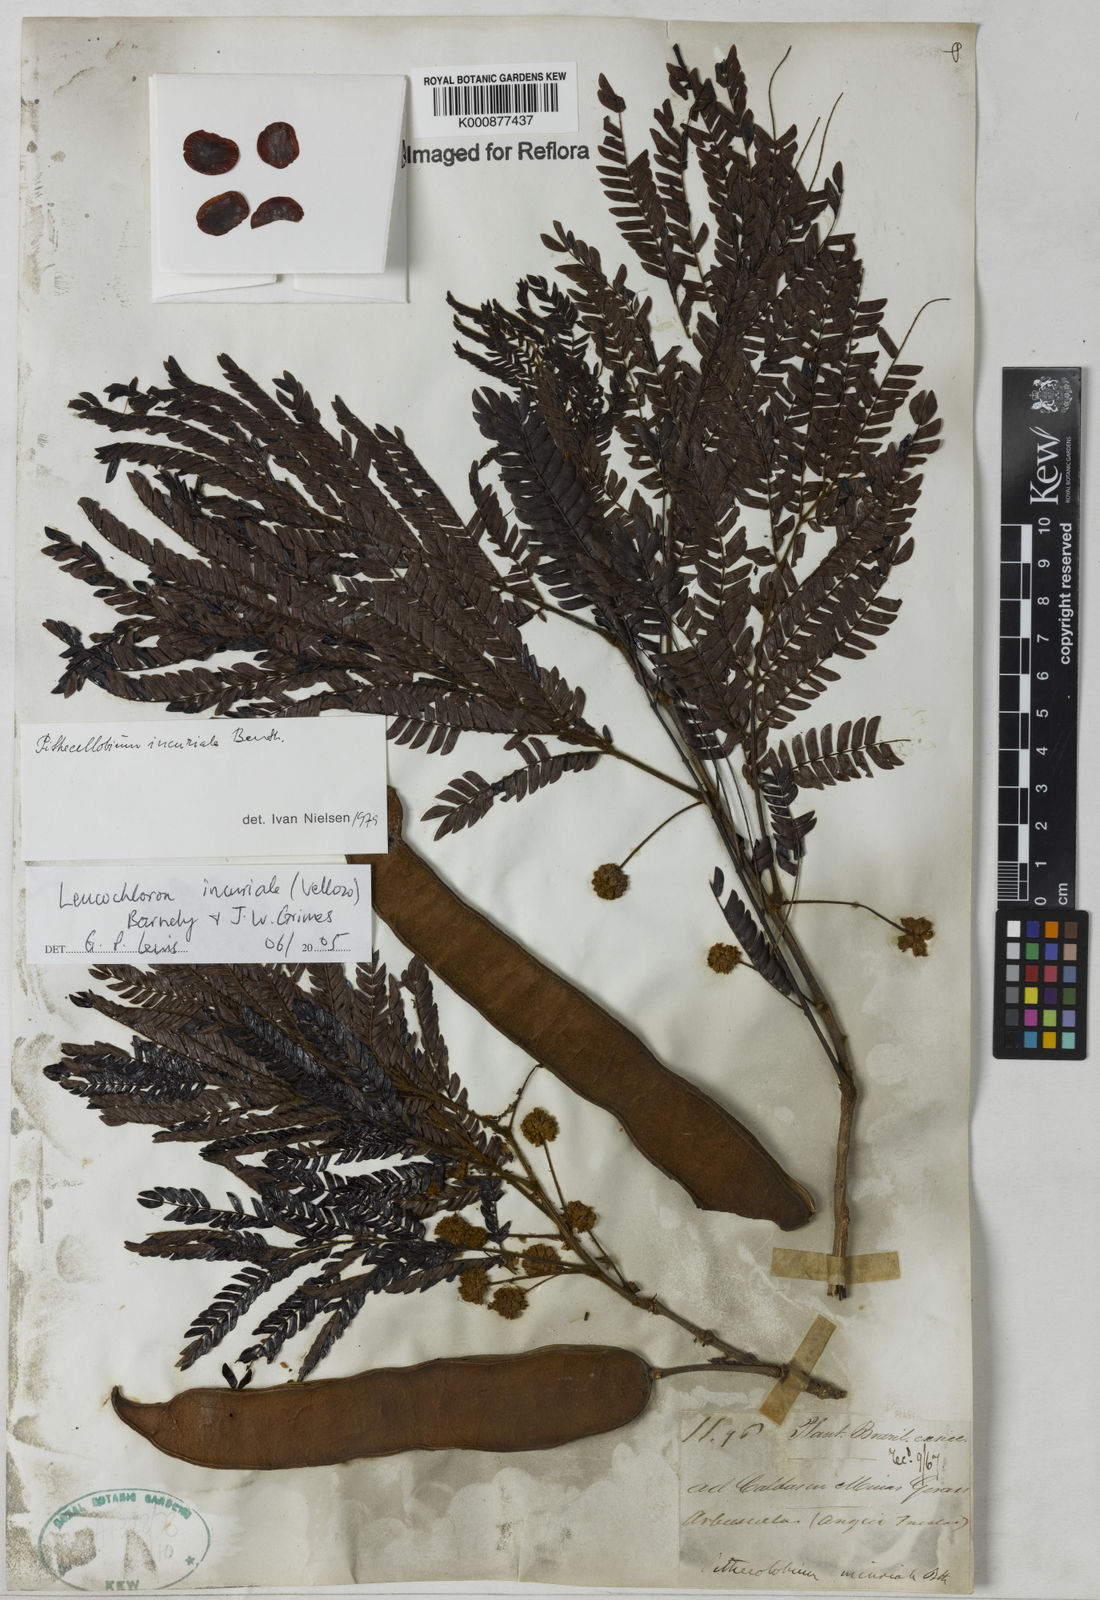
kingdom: Plantae
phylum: Tracheophyta
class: Magnoliopsida
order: Fabales
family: Fabaceae
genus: Leucochloron
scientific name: Leucochloron incuriale
